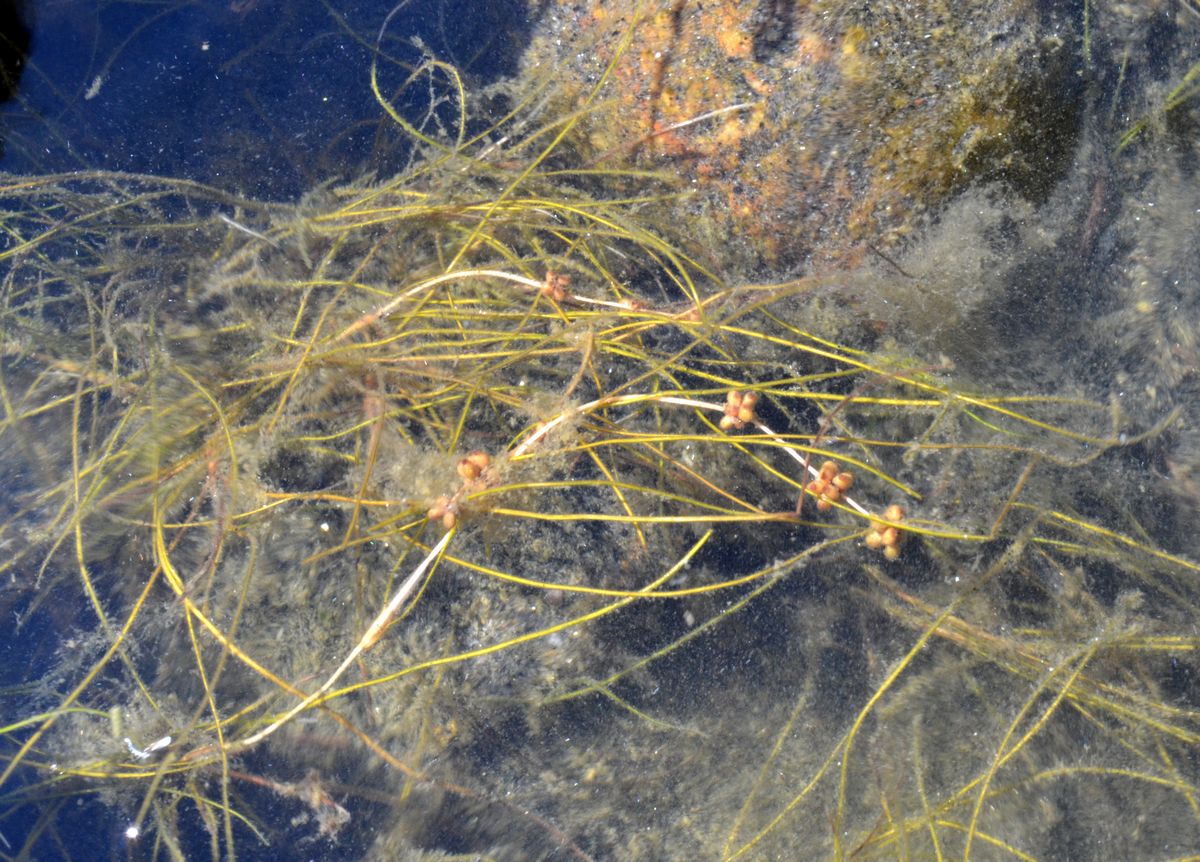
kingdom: Plantae
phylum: Tracheophyta
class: Liliopsida
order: Alismatales
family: Potamogetonaceae
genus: Stuckenia
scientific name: Stuckenia filiformis
